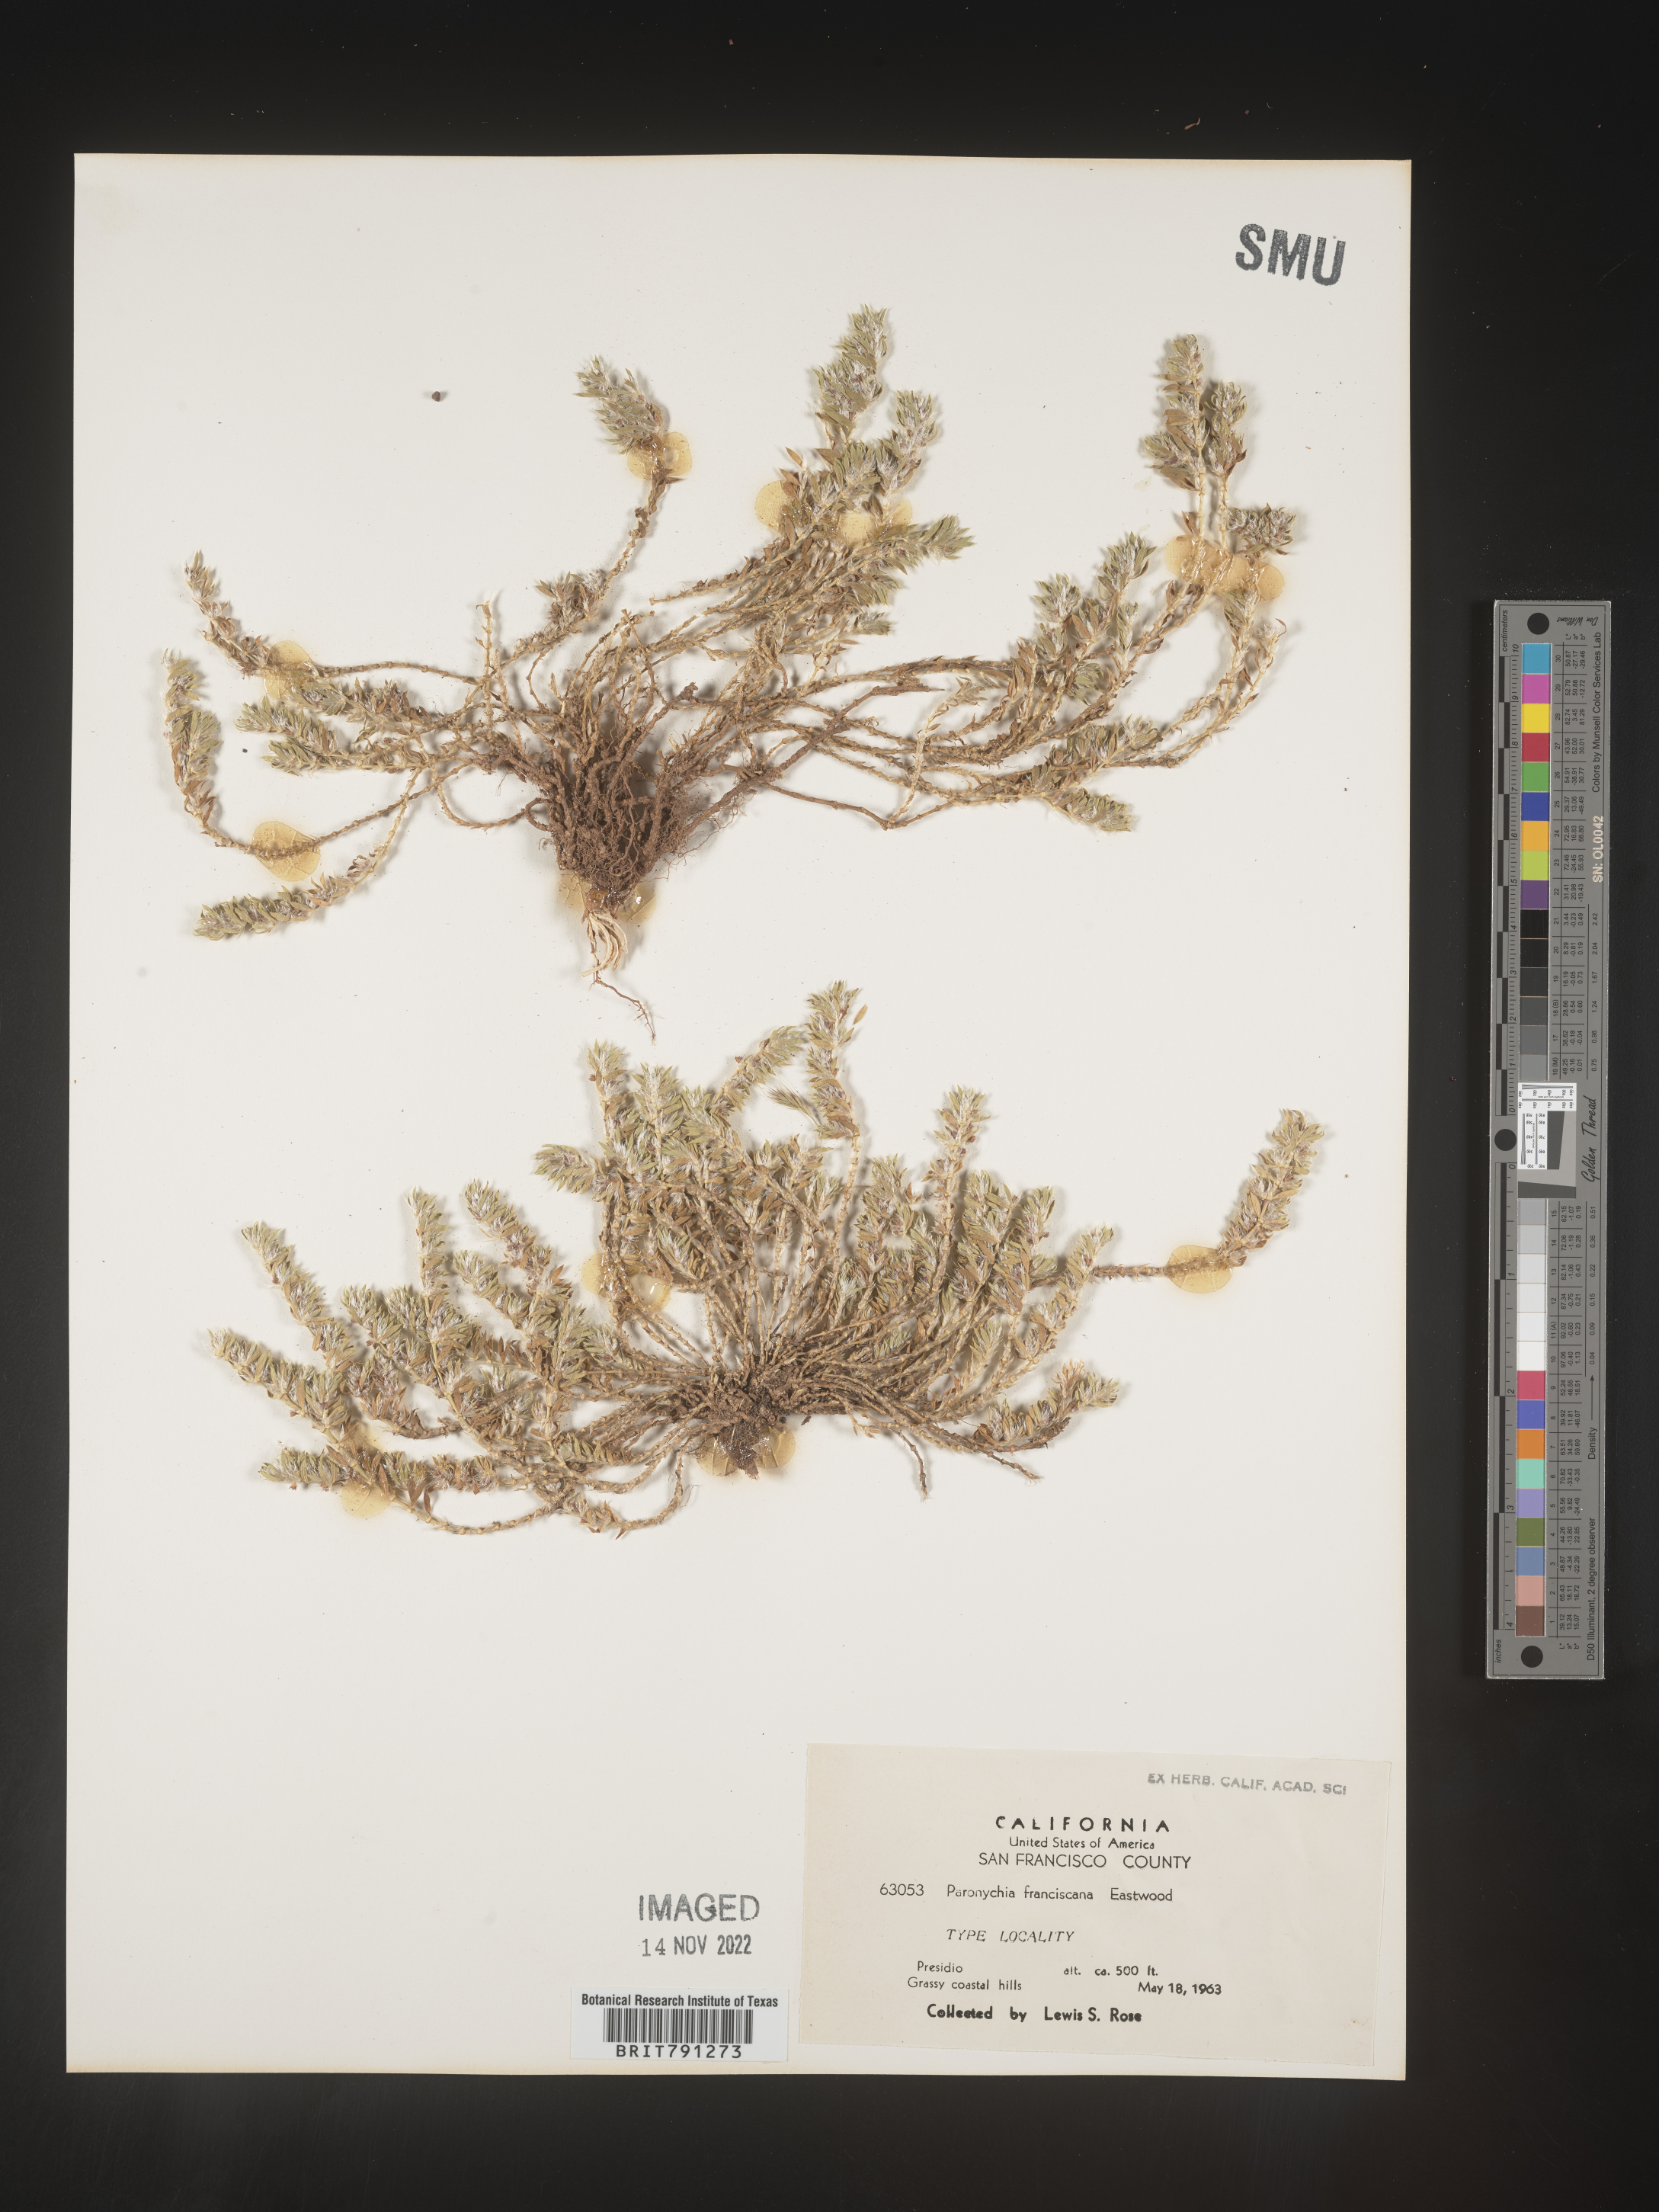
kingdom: Plantae
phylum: Tracheophyta
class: Magnoliopsida
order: Caryophyllales
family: Caryophyllaceae
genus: Paronychia
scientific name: Paronychia franciscana
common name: San francisco nailwort
